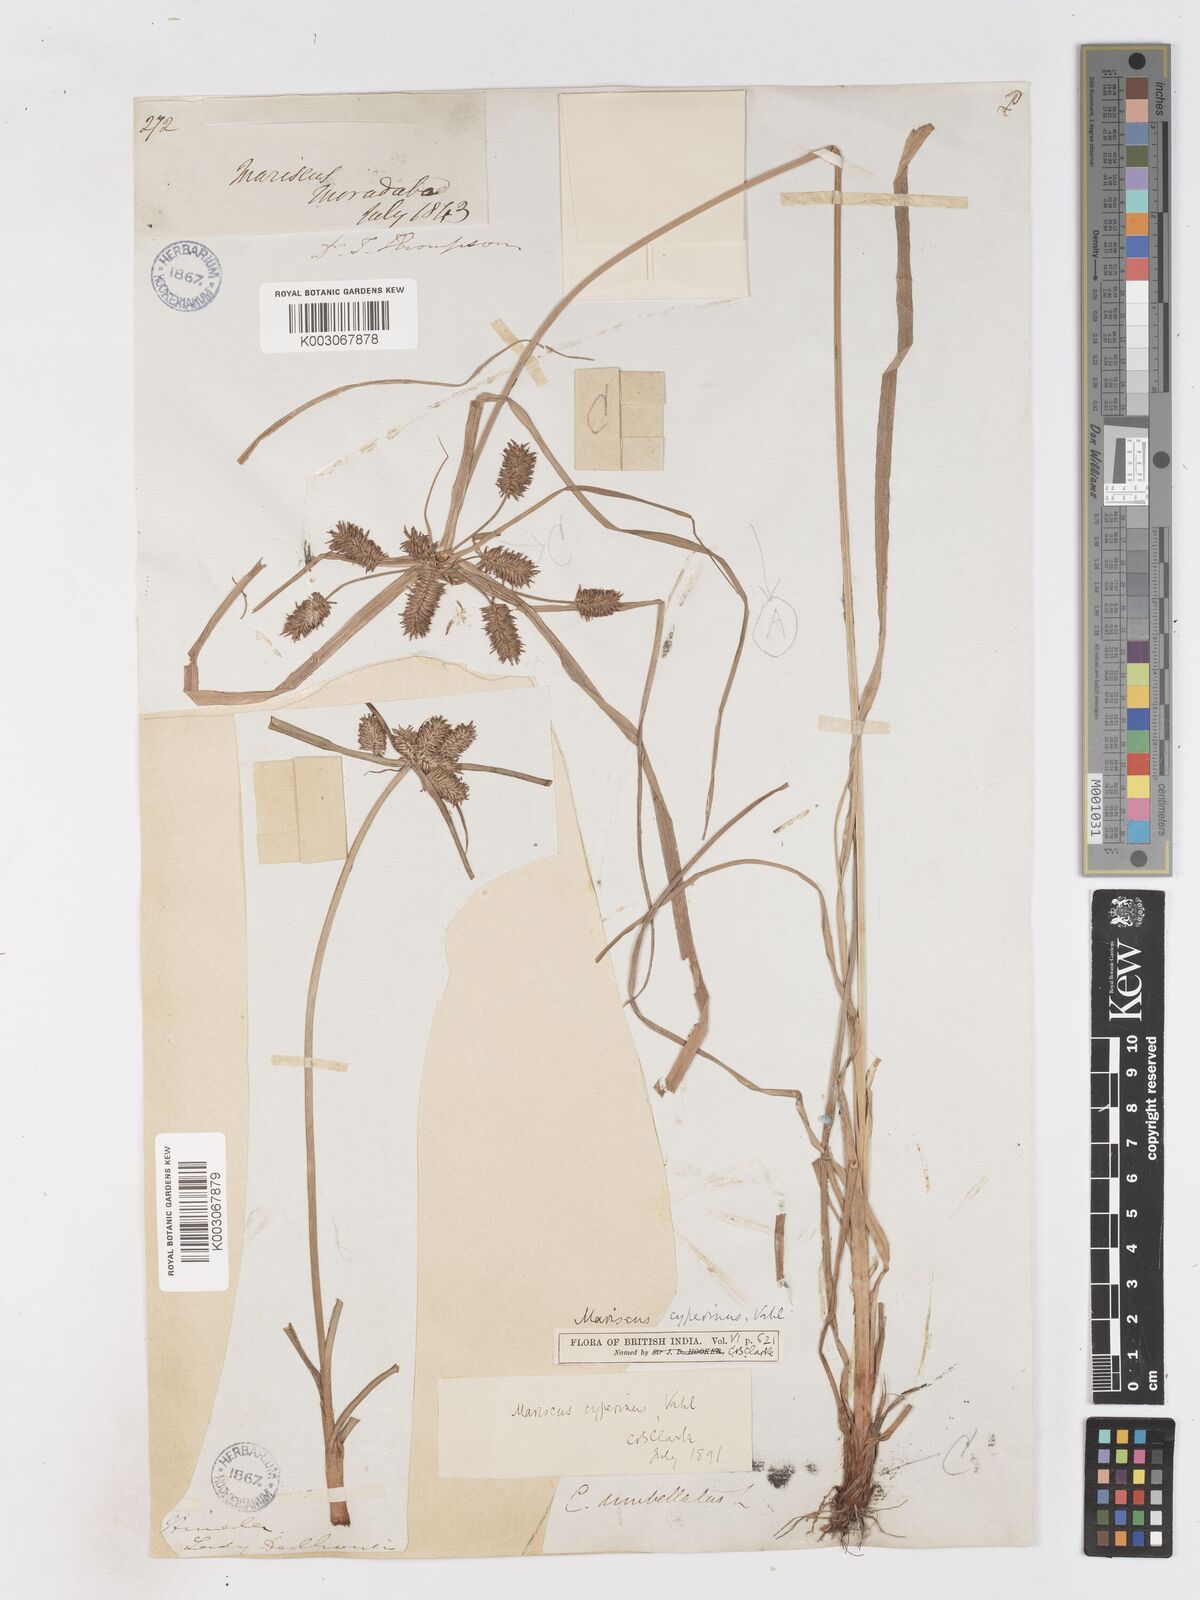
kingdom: Plantae
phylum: Tracheophyta
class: Liliopsida
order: Poales
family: Cyperaceae
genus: Cyperus
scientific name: Cyperus
